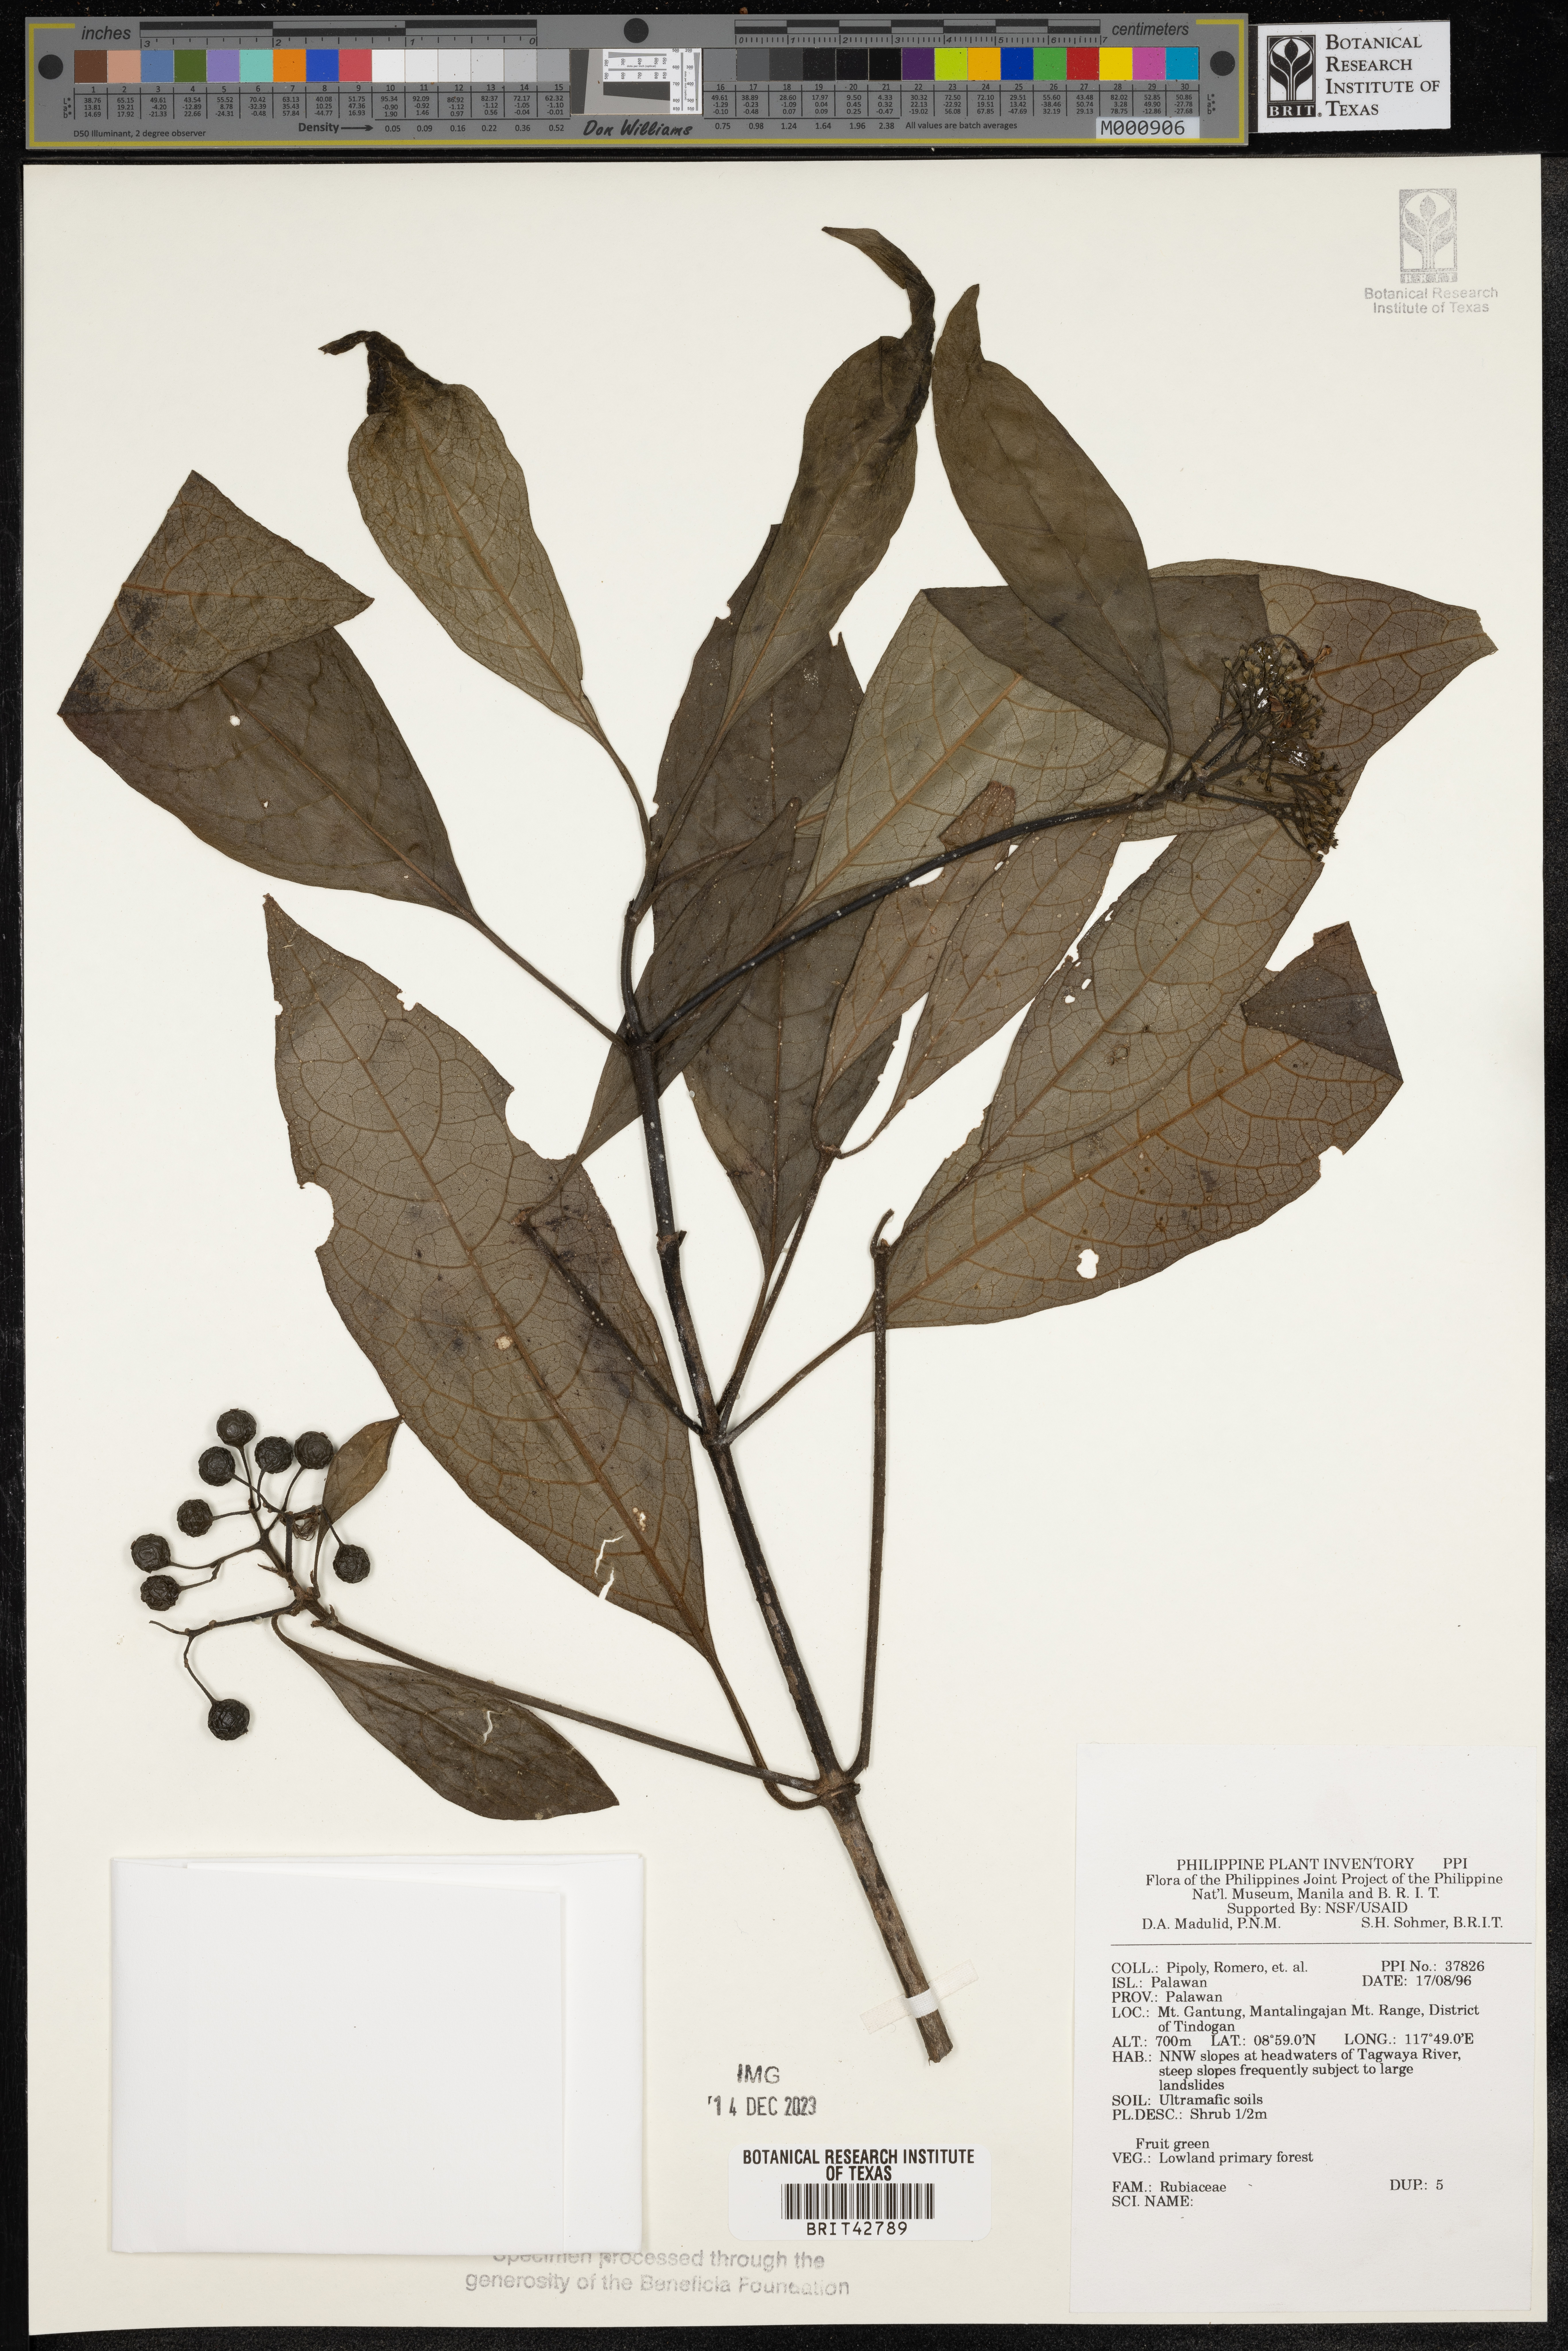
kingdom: Plantae
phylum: Tracheophyta
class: Magnoliopsida
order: Gentianales
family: Rubiaceae
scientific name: Rubiaceae
